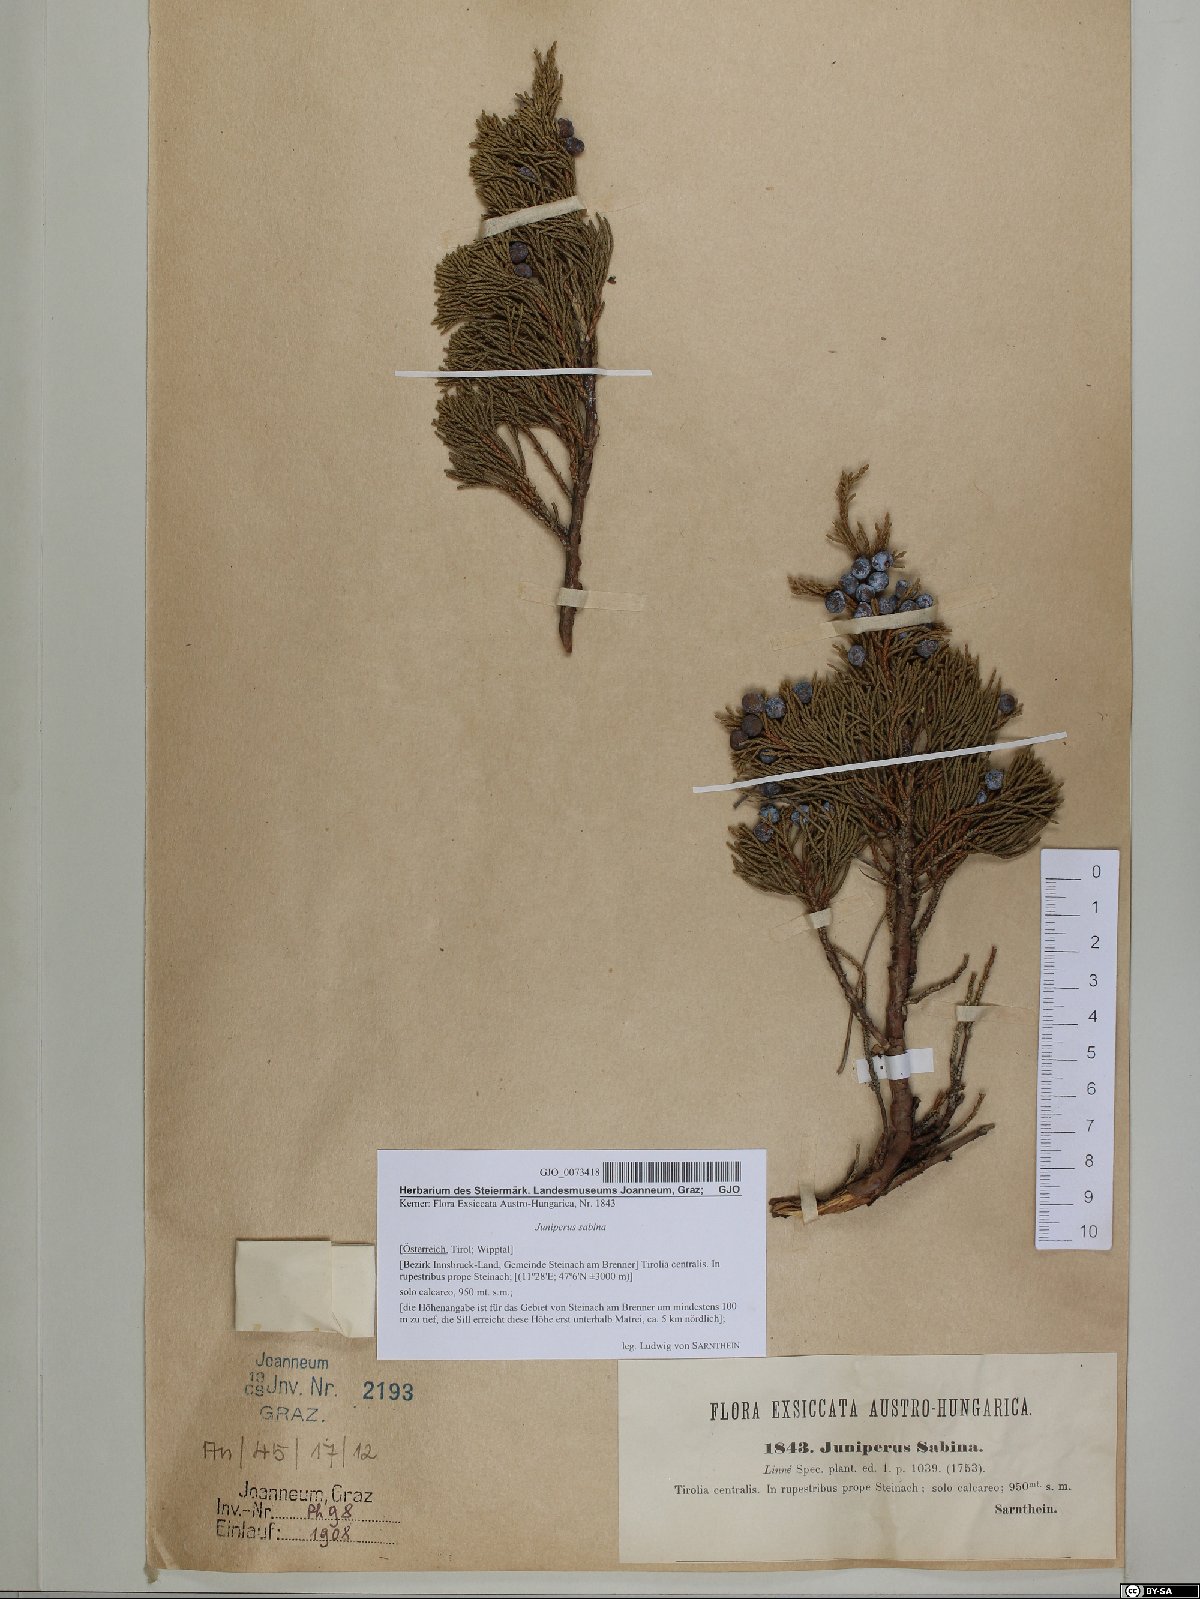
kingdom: Plantae
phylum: Tracheophyta
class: Pinopsida
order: Pinales
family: Cupressaceae
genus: Juniperus
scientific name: Juniperus sabina
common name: Savin
